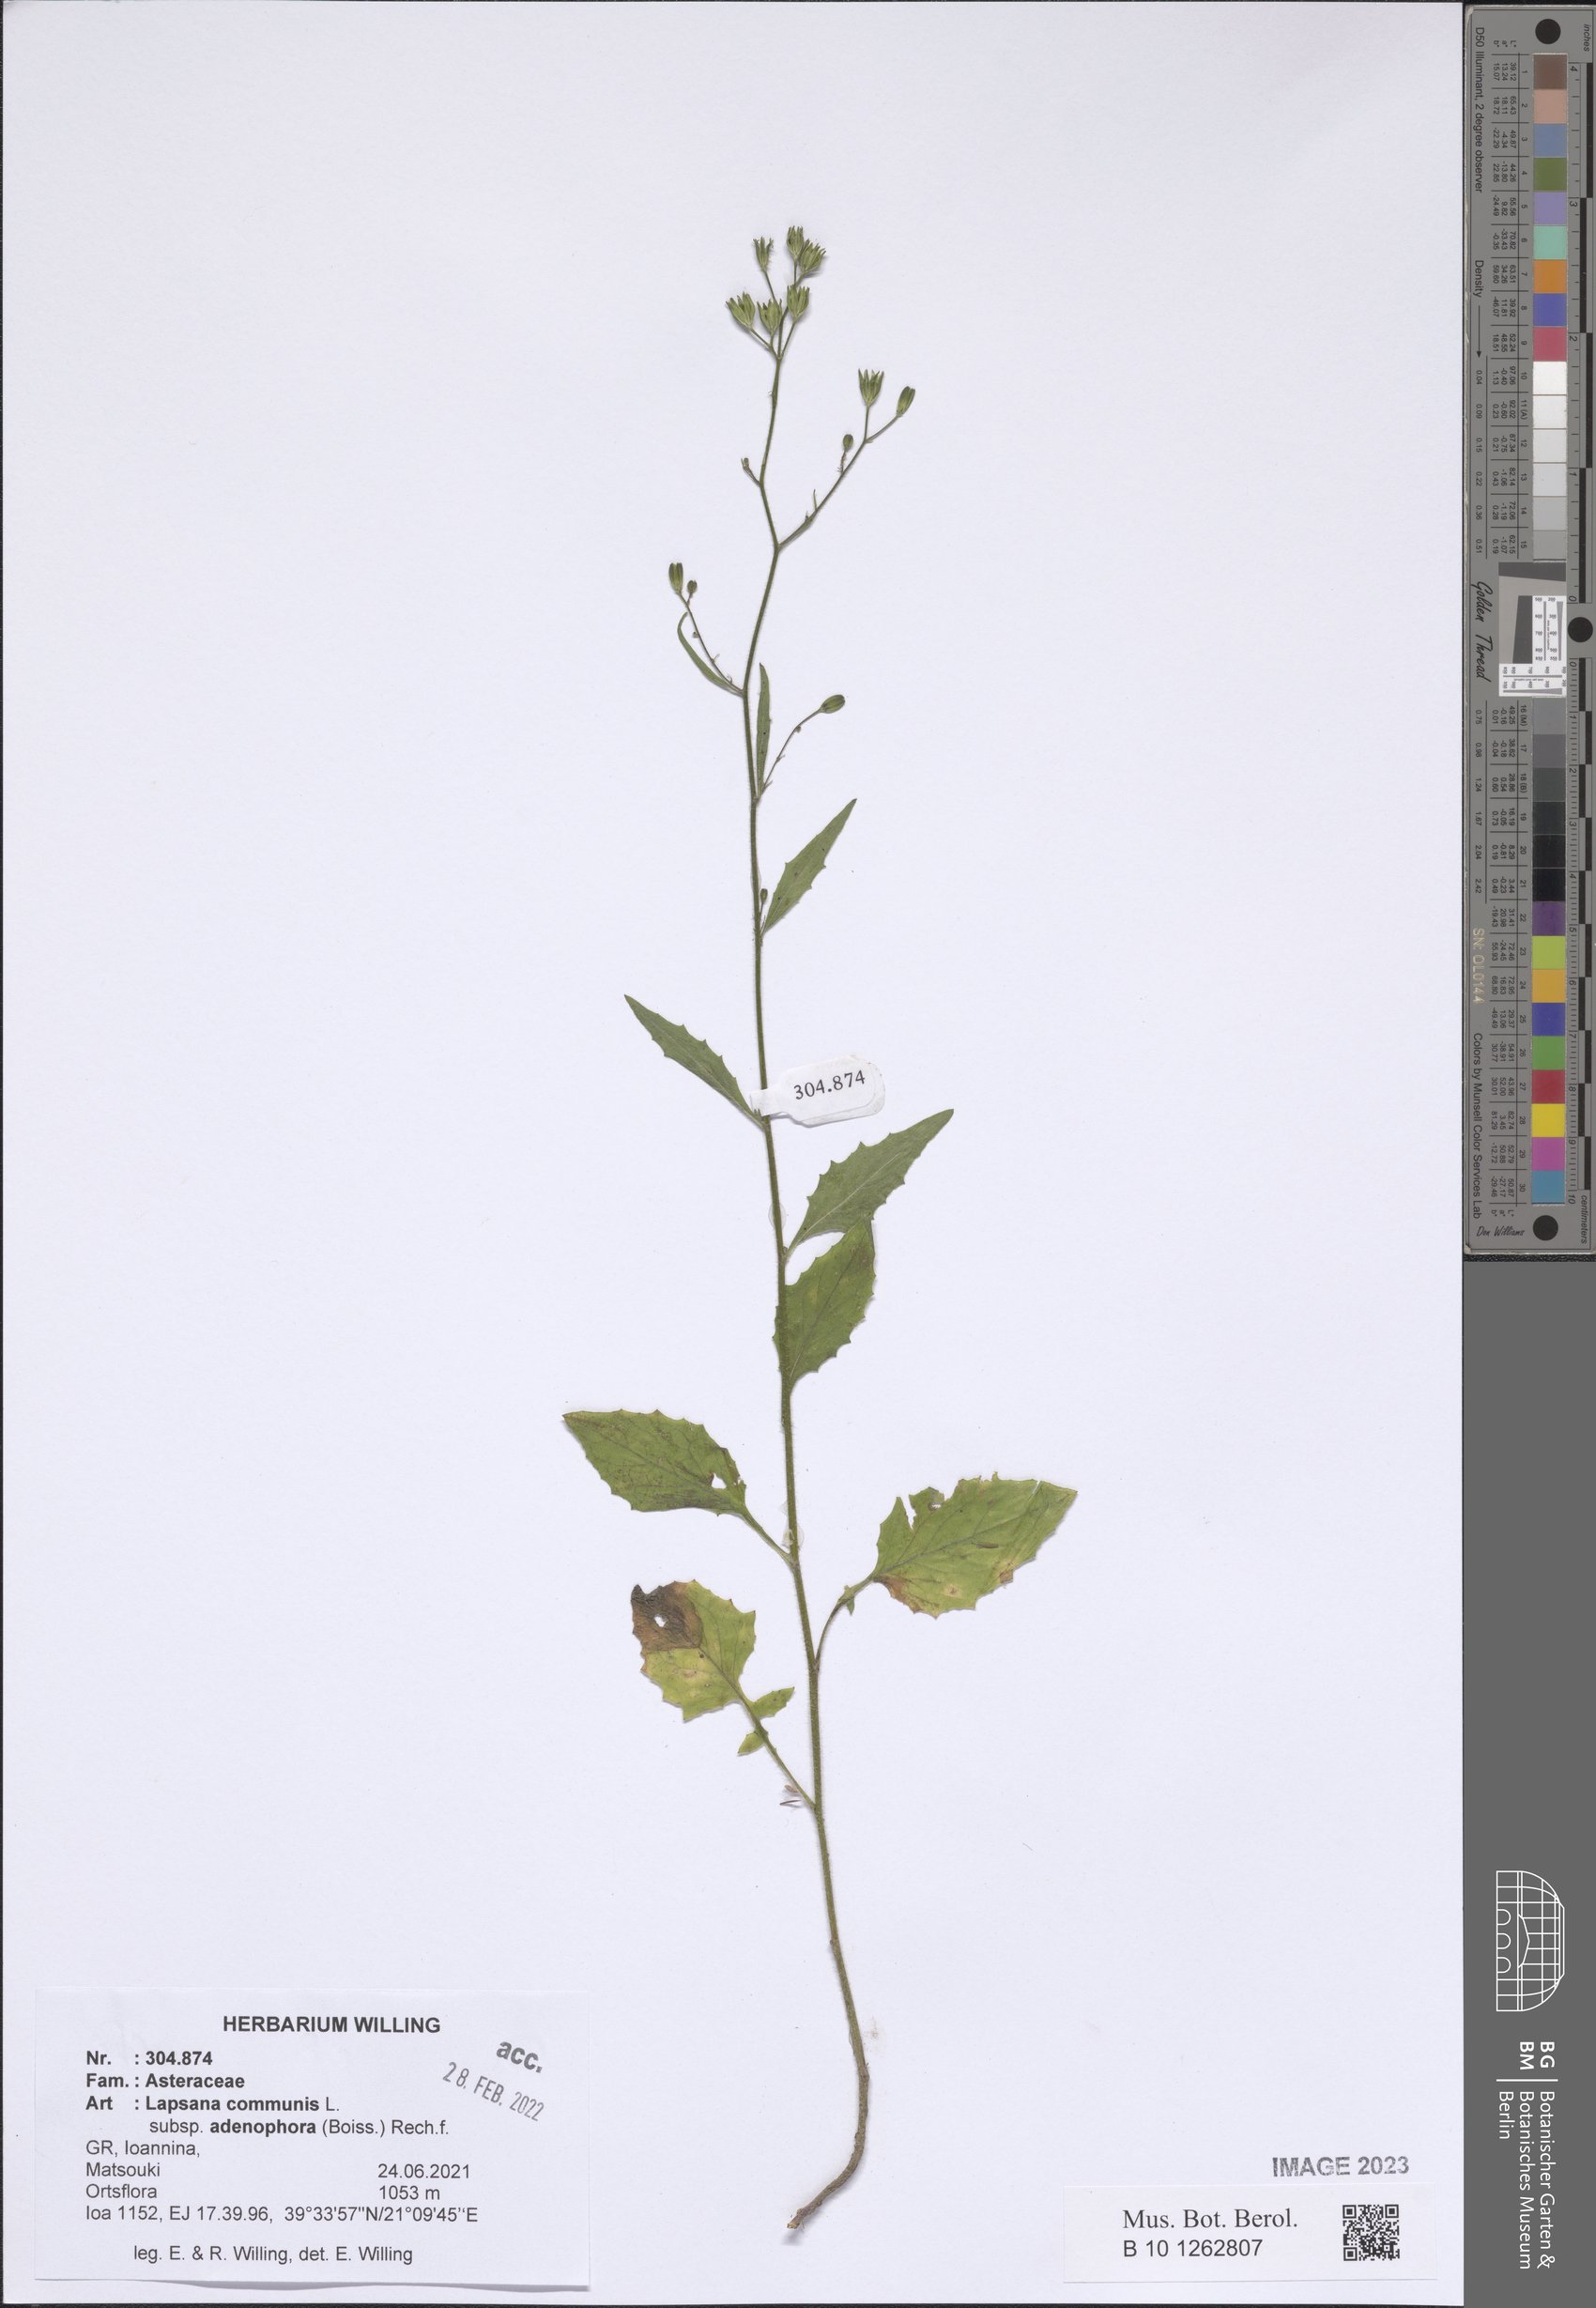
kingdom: Plantae
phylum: Tracheophyta
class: Magnoliopsida
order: Asterales
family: Asteraceae
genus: Lapsana
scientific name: Lapsana communis
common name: Nipplewort
